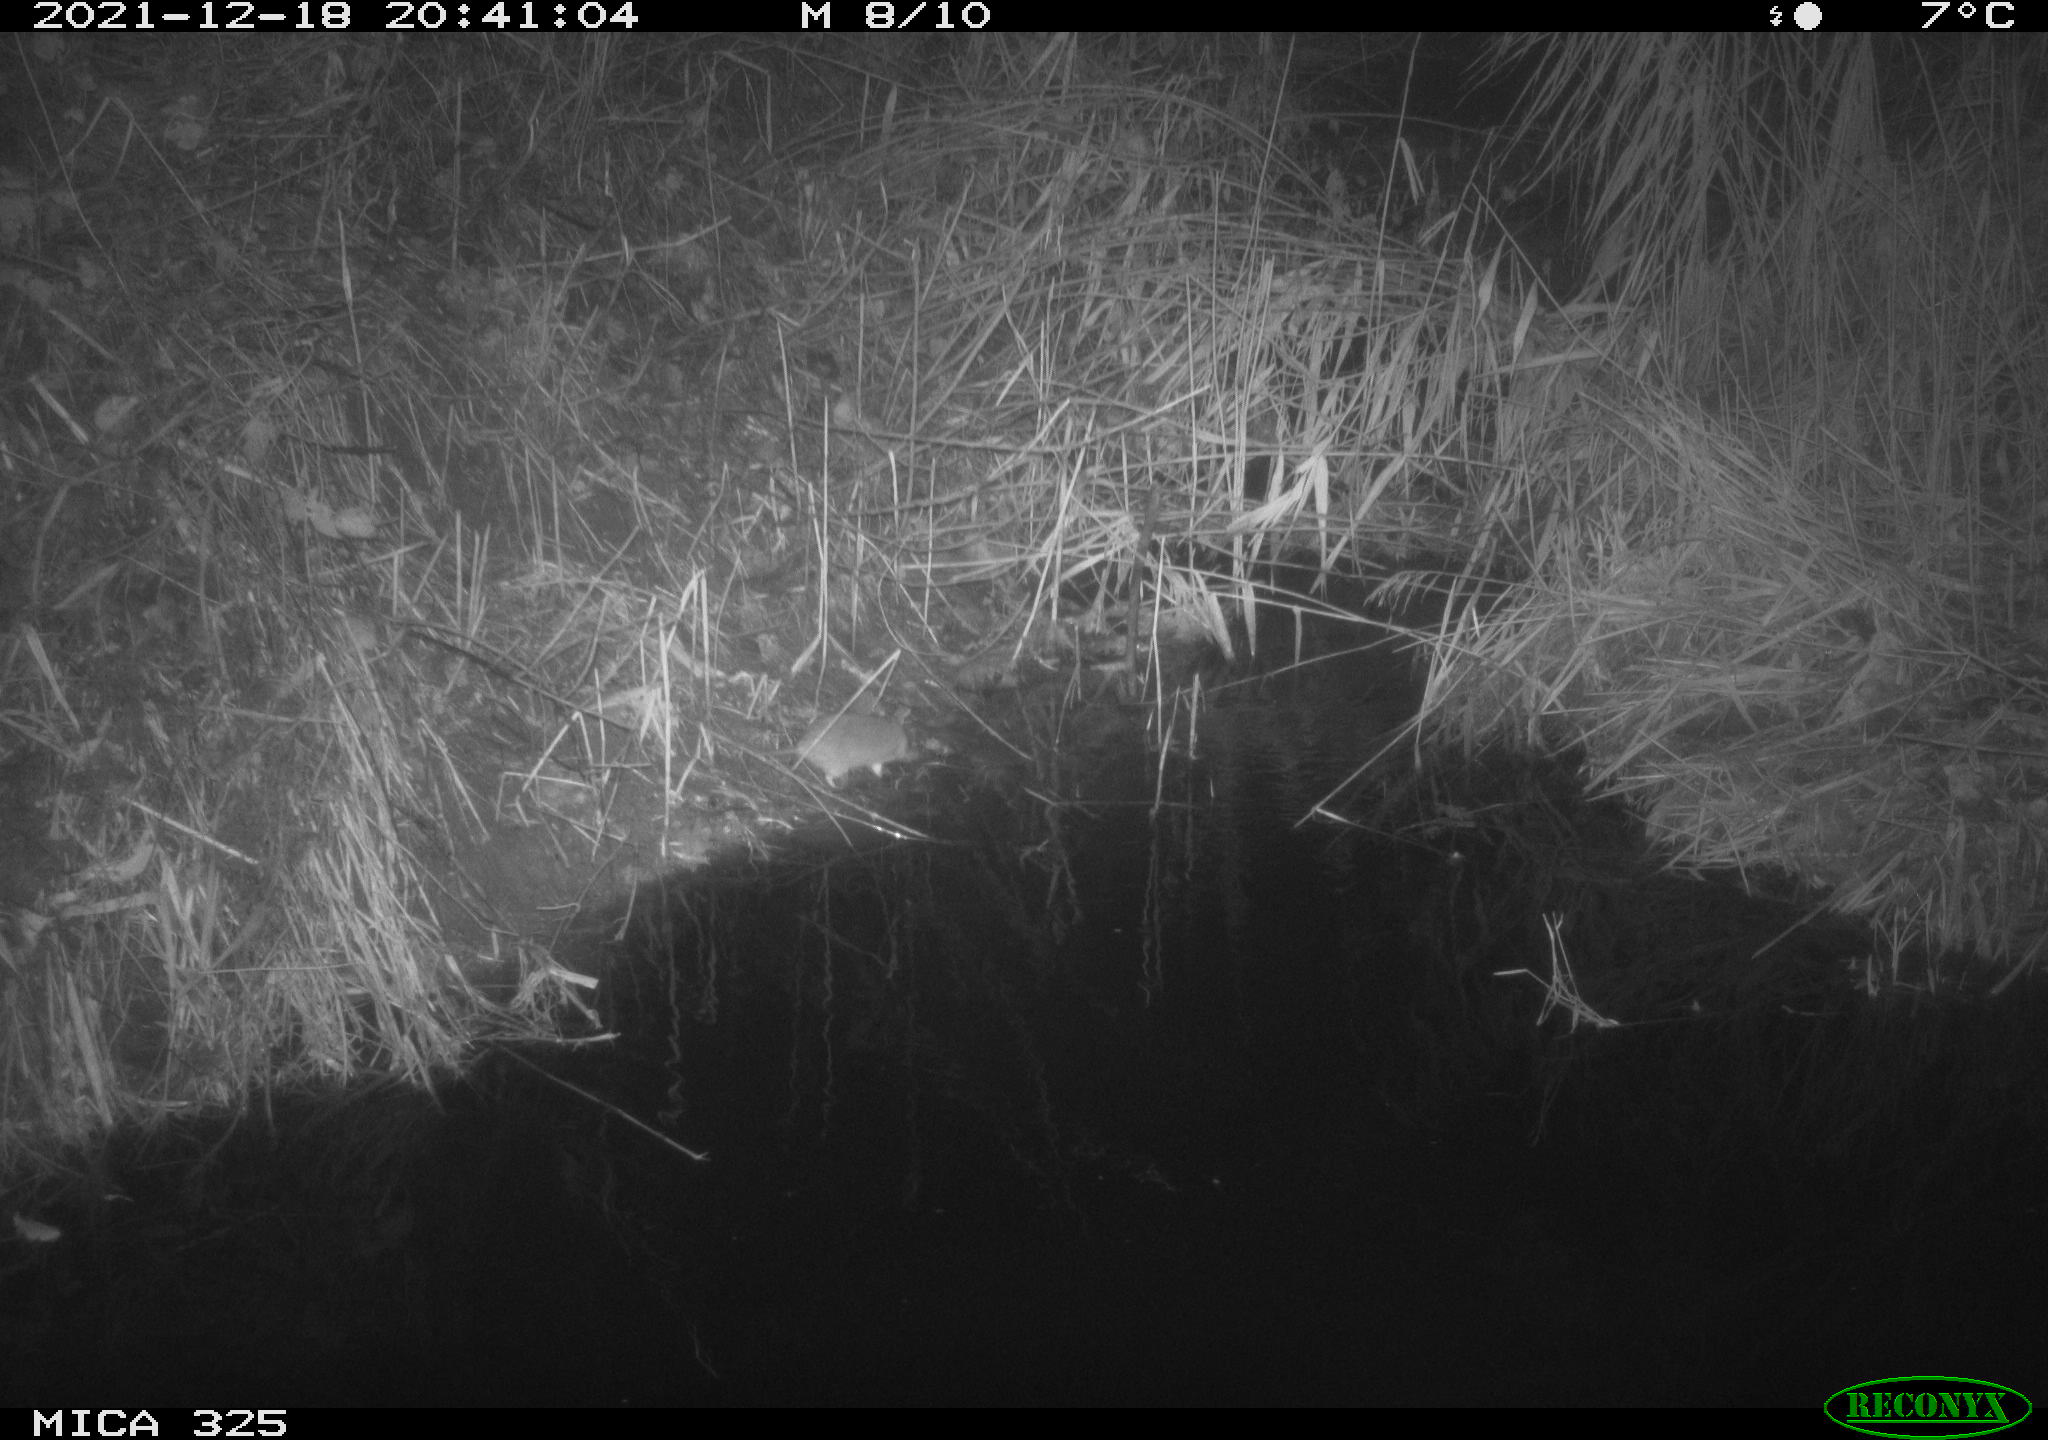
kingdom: Animalia
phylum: Chordata
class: Mammalia
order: Rodentia
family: Muridae
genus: Rattus
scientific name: Rattus norvegicus
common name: Brown rat
